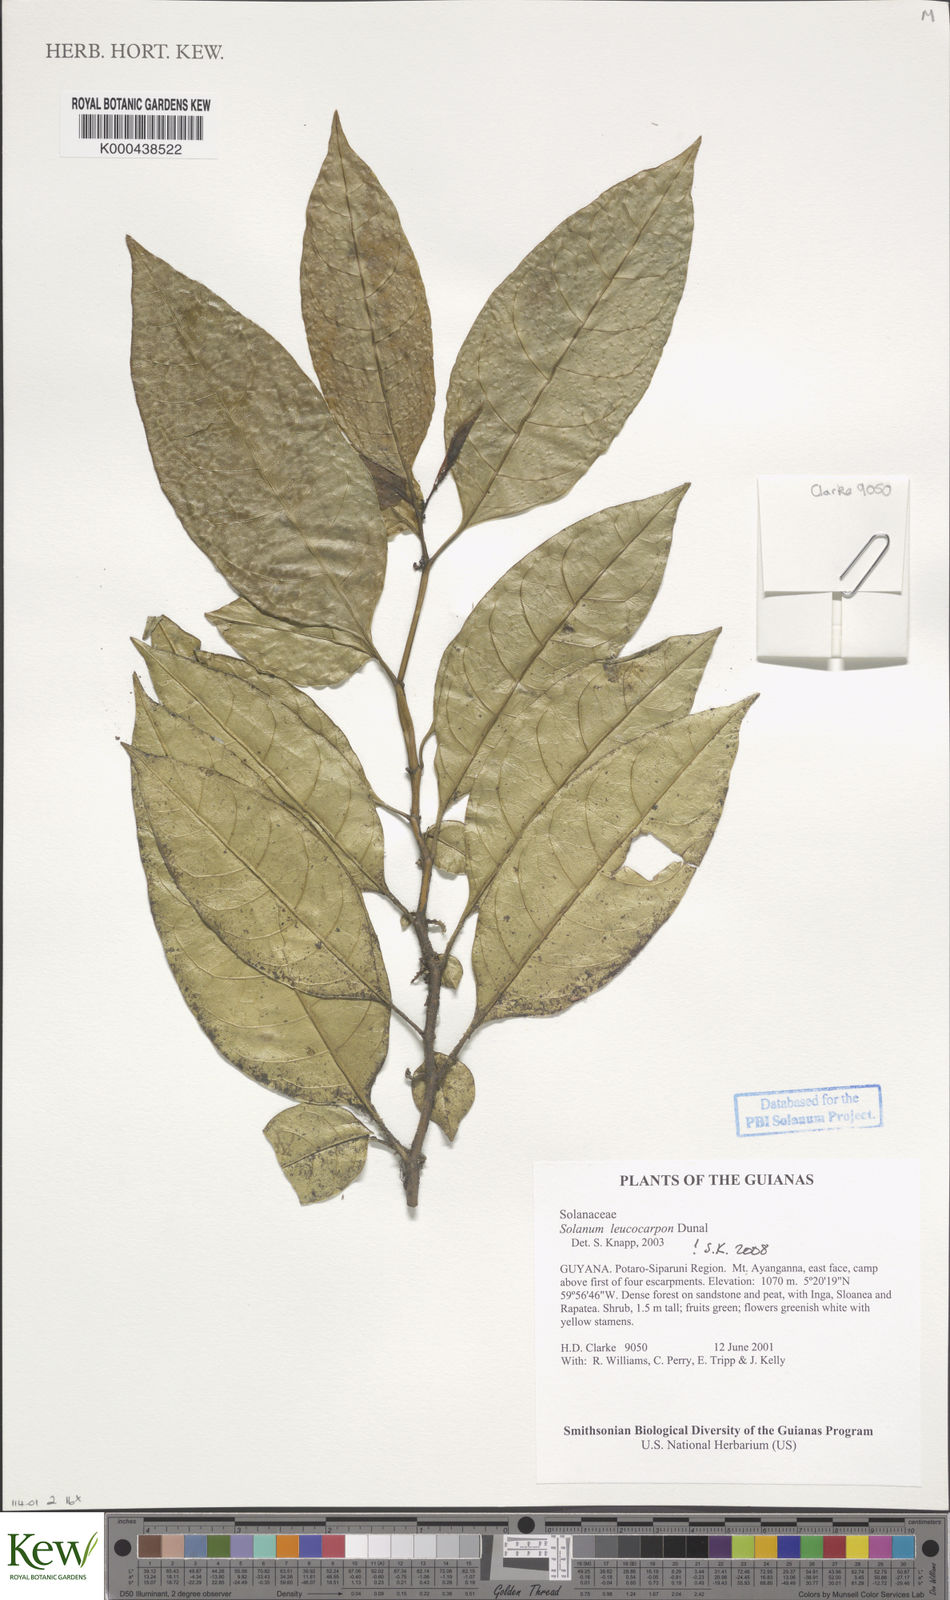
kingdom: Plantae
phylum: Tracheophyta
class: Magnoliopsida
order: Solanales
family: Solanaceae
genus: Solanum
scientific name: Solanum leucocarpon
